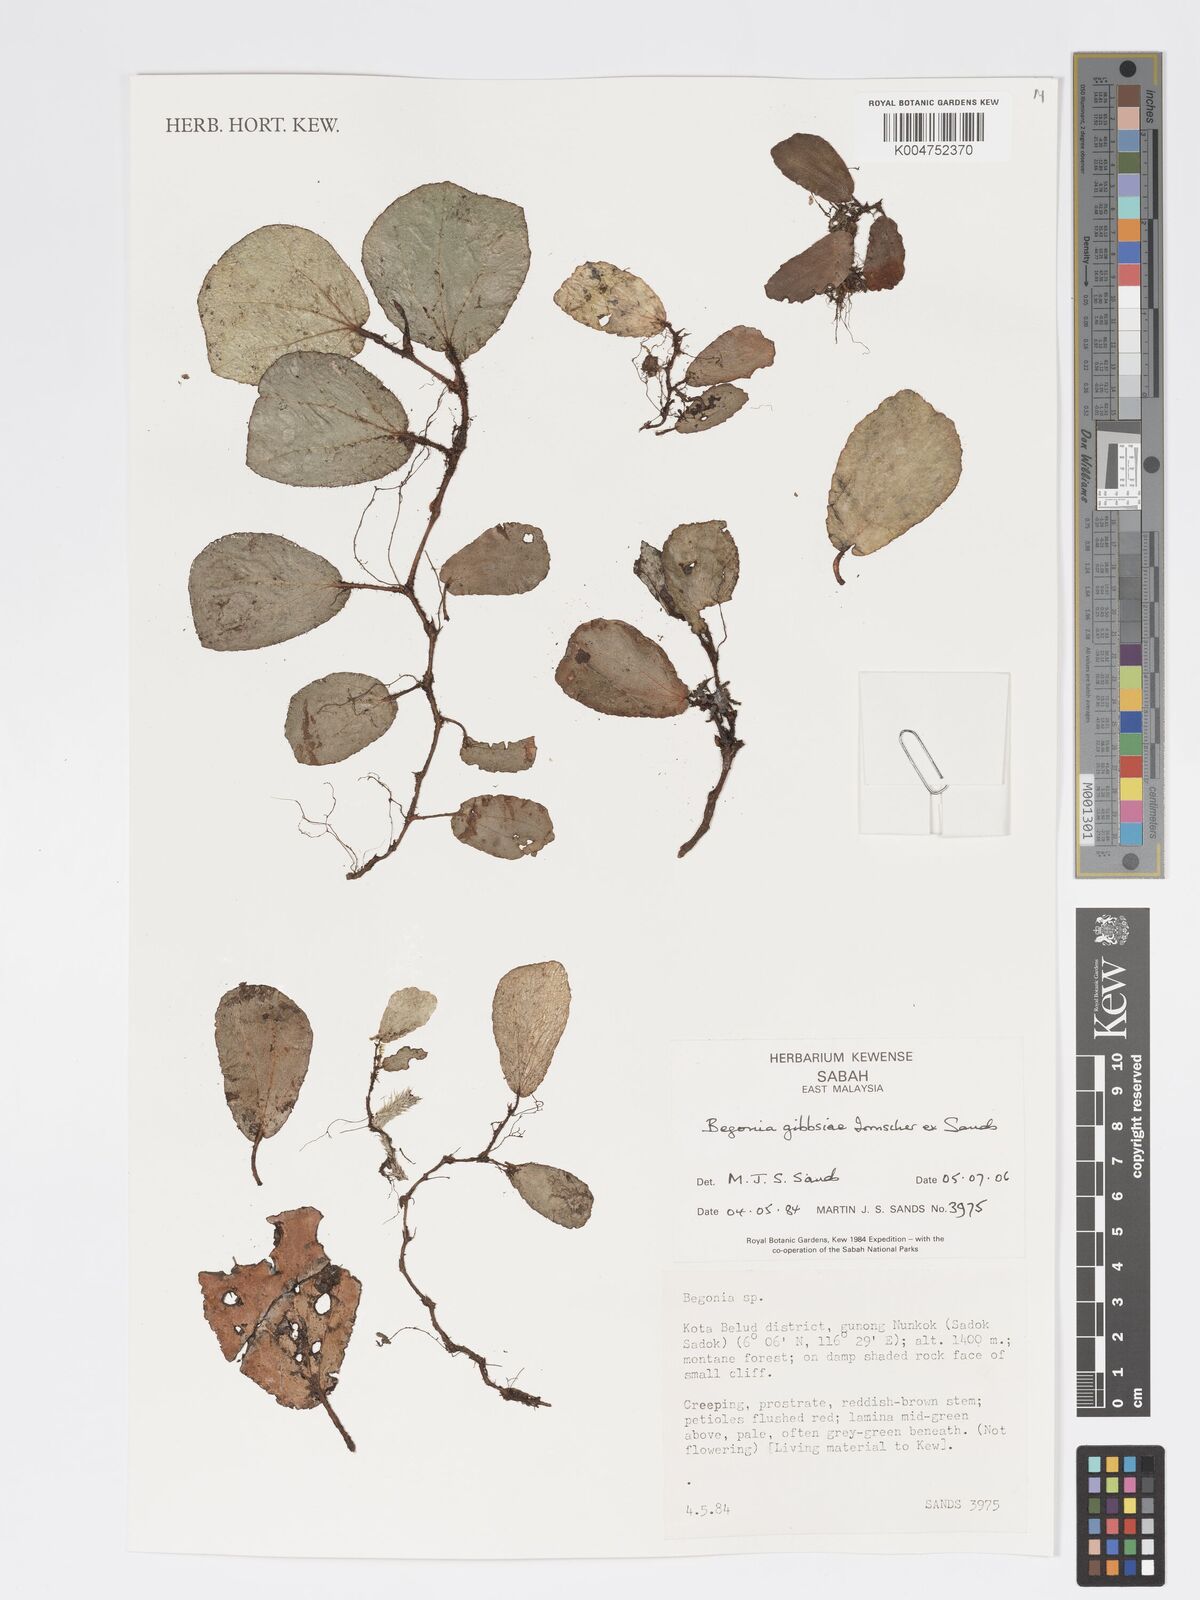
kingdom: Plantae
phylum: Tracheophyta
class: Magnoliopsida
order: Cucurbitales
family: Begoniaceae
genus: Begonia
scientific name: Begonia gibbsiae
